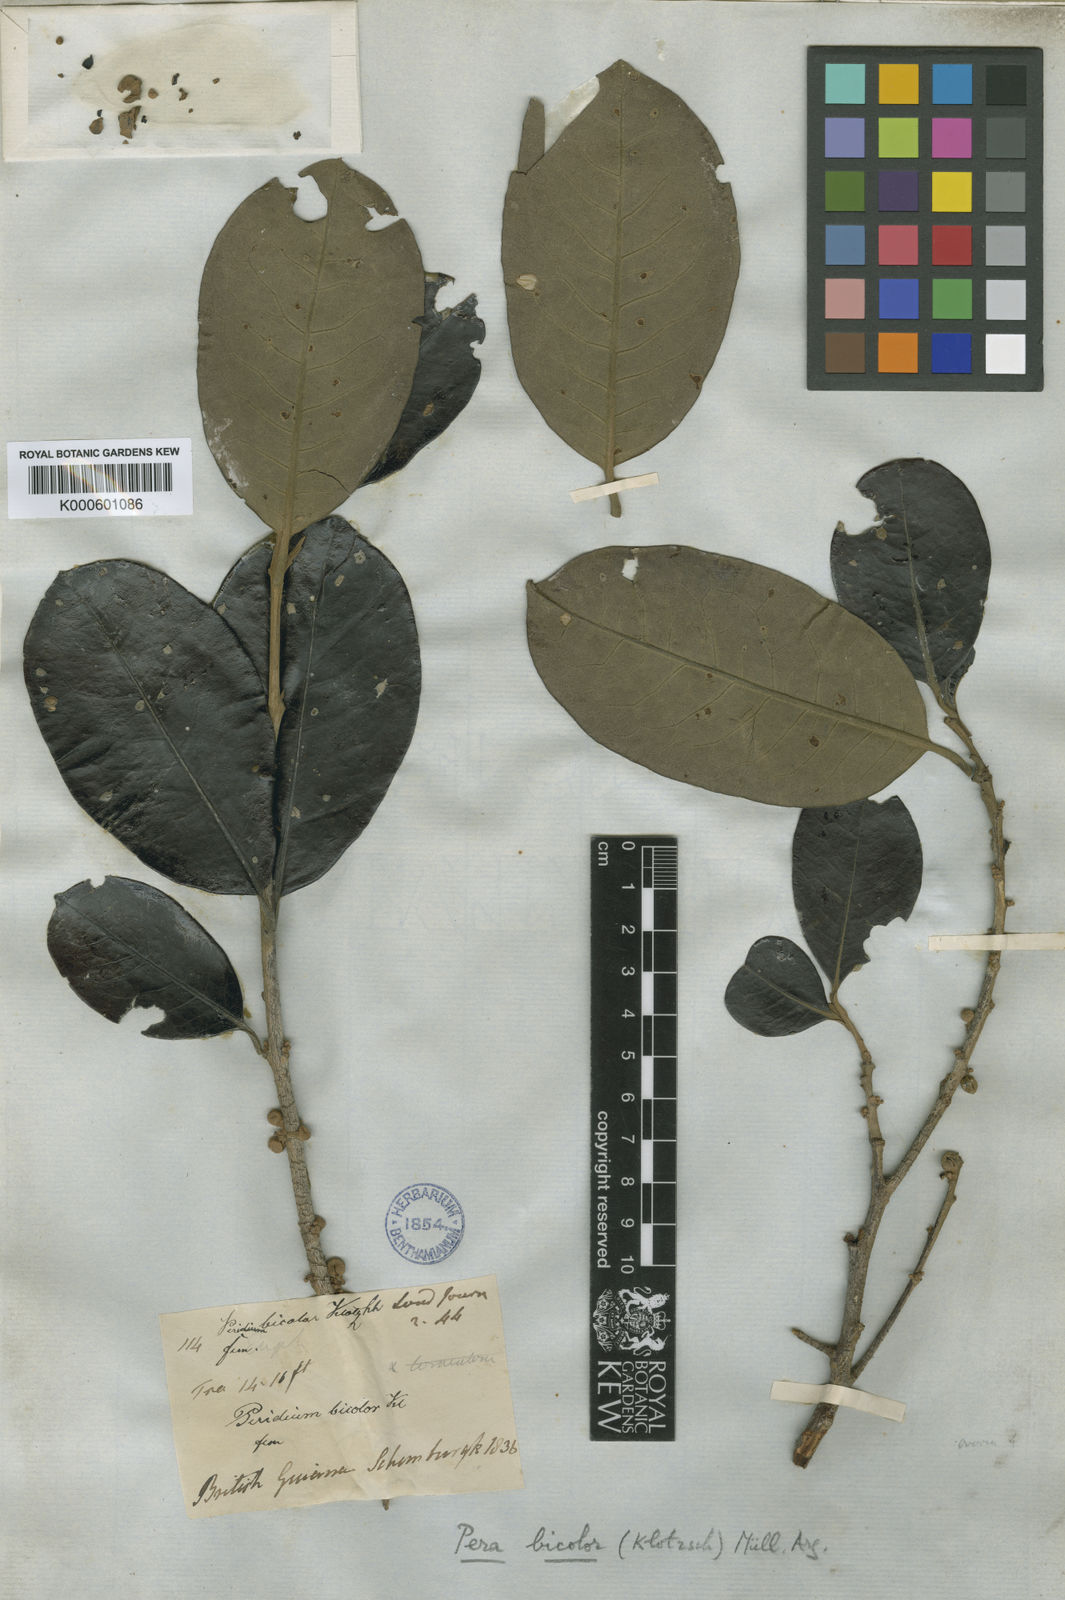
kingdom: Plantae
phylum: Tracheophyta
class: Magnoliopsida
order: Malpighiales
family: Peraceae
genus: Pera
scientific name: Pera
